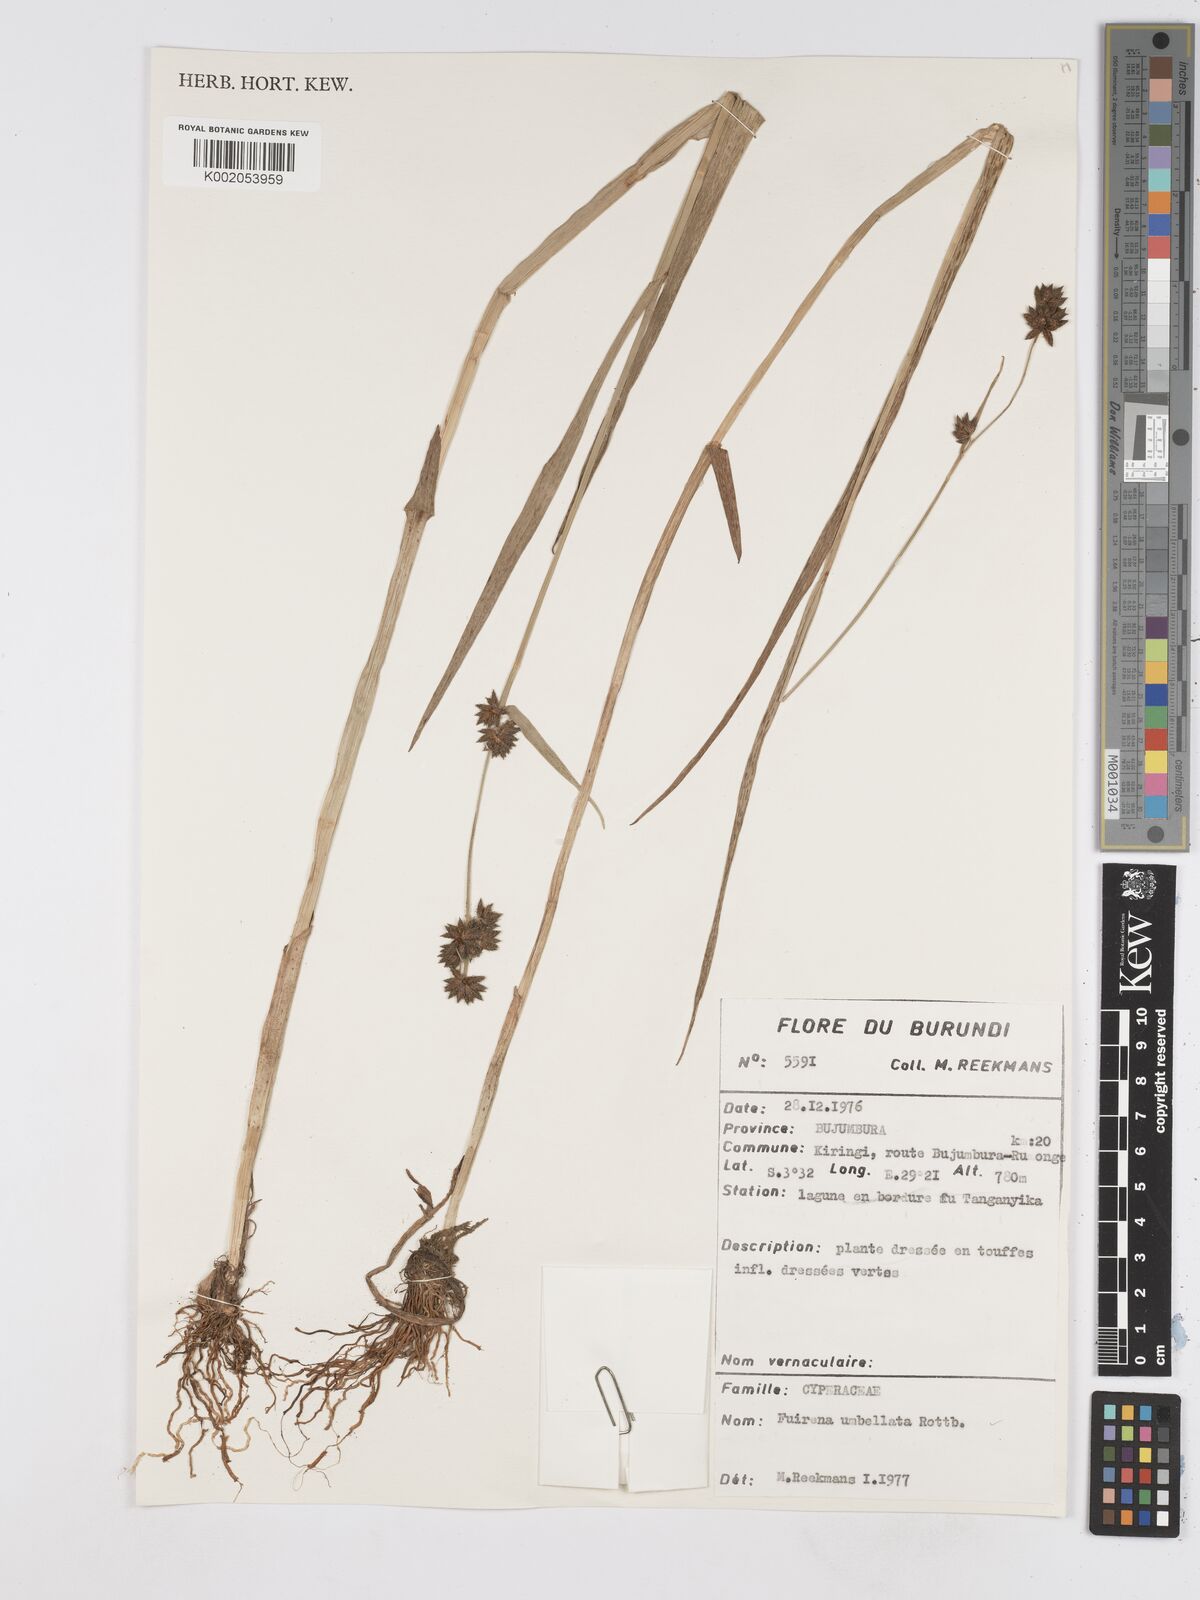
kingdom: Plantae
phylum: Tracheophyta
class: Liliopsida
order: Poales
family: Cyperaceae
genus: Fuirena
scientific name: Fuirena umbellata
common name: Yefen
